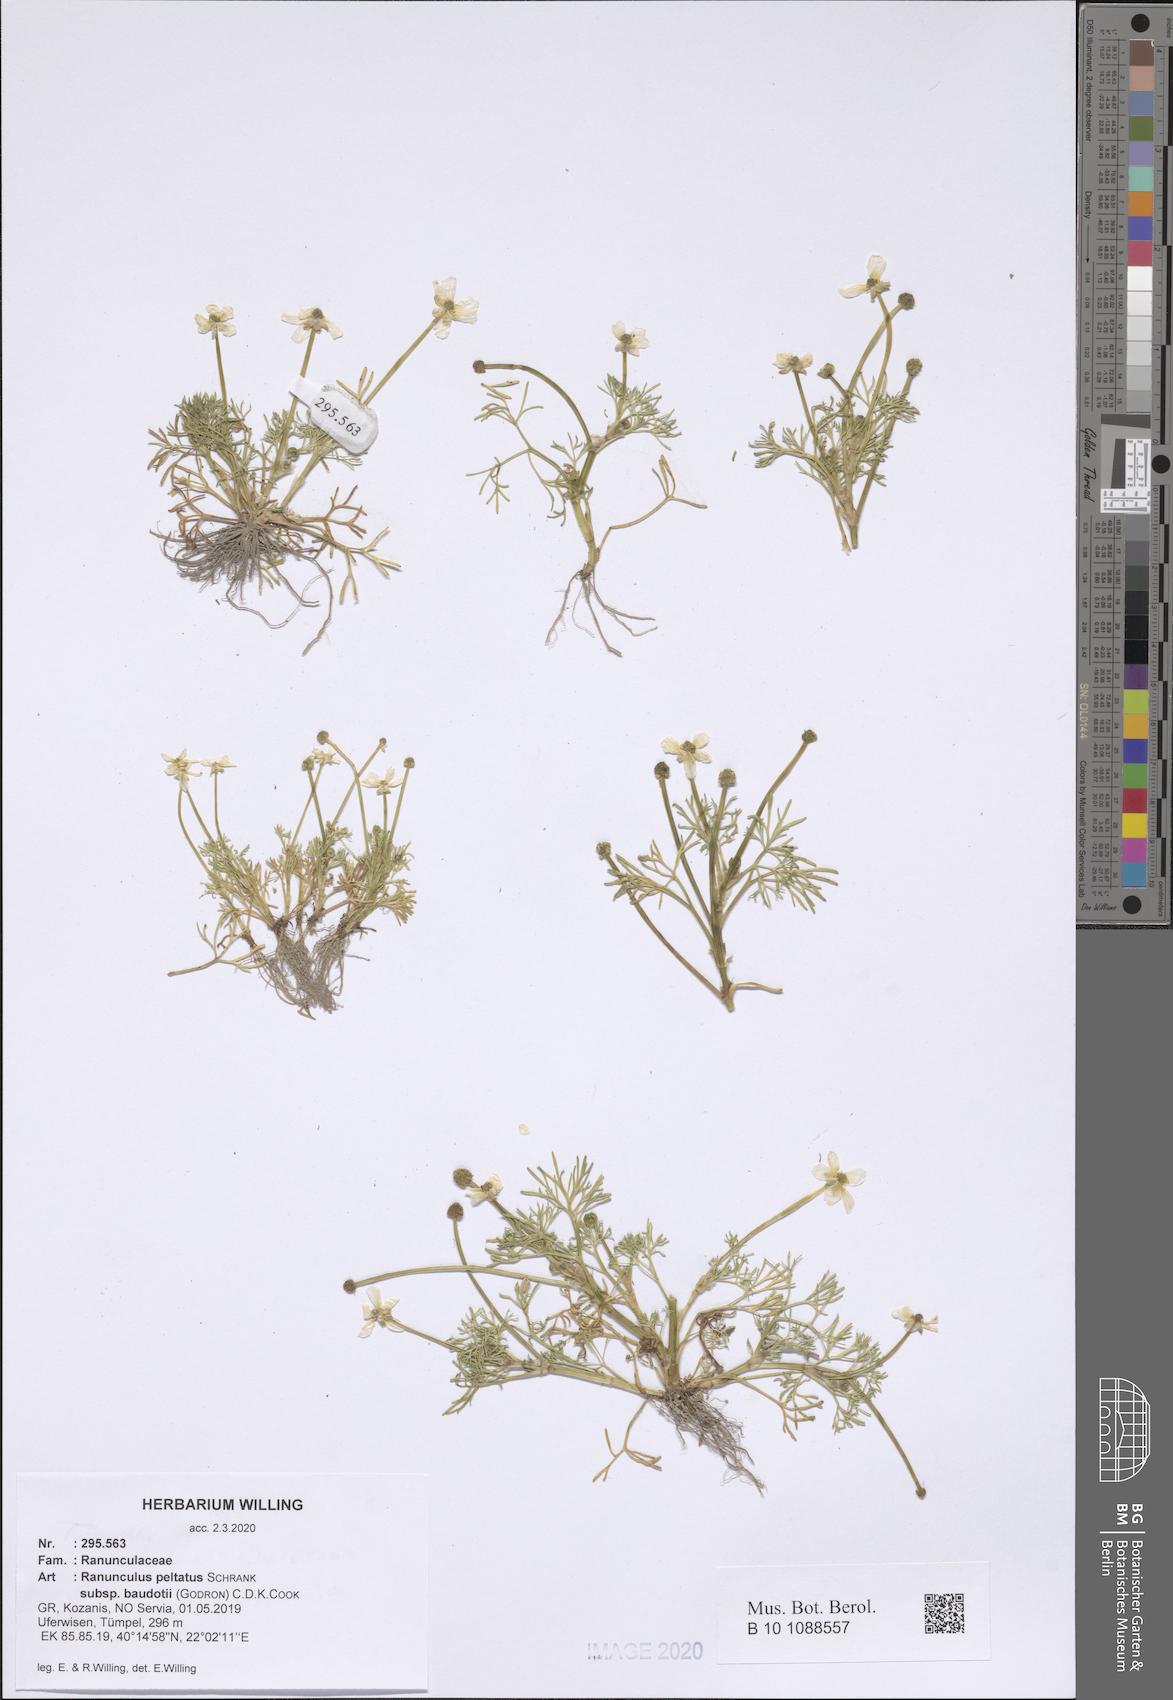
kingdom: Plantae
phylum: Tracheophyta
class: Magnoliopsida
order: Ranunculales
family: Ranunculaceae
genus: Ranunculus
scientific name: Ranunculus peltatus
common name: Pond water-crowfoot
